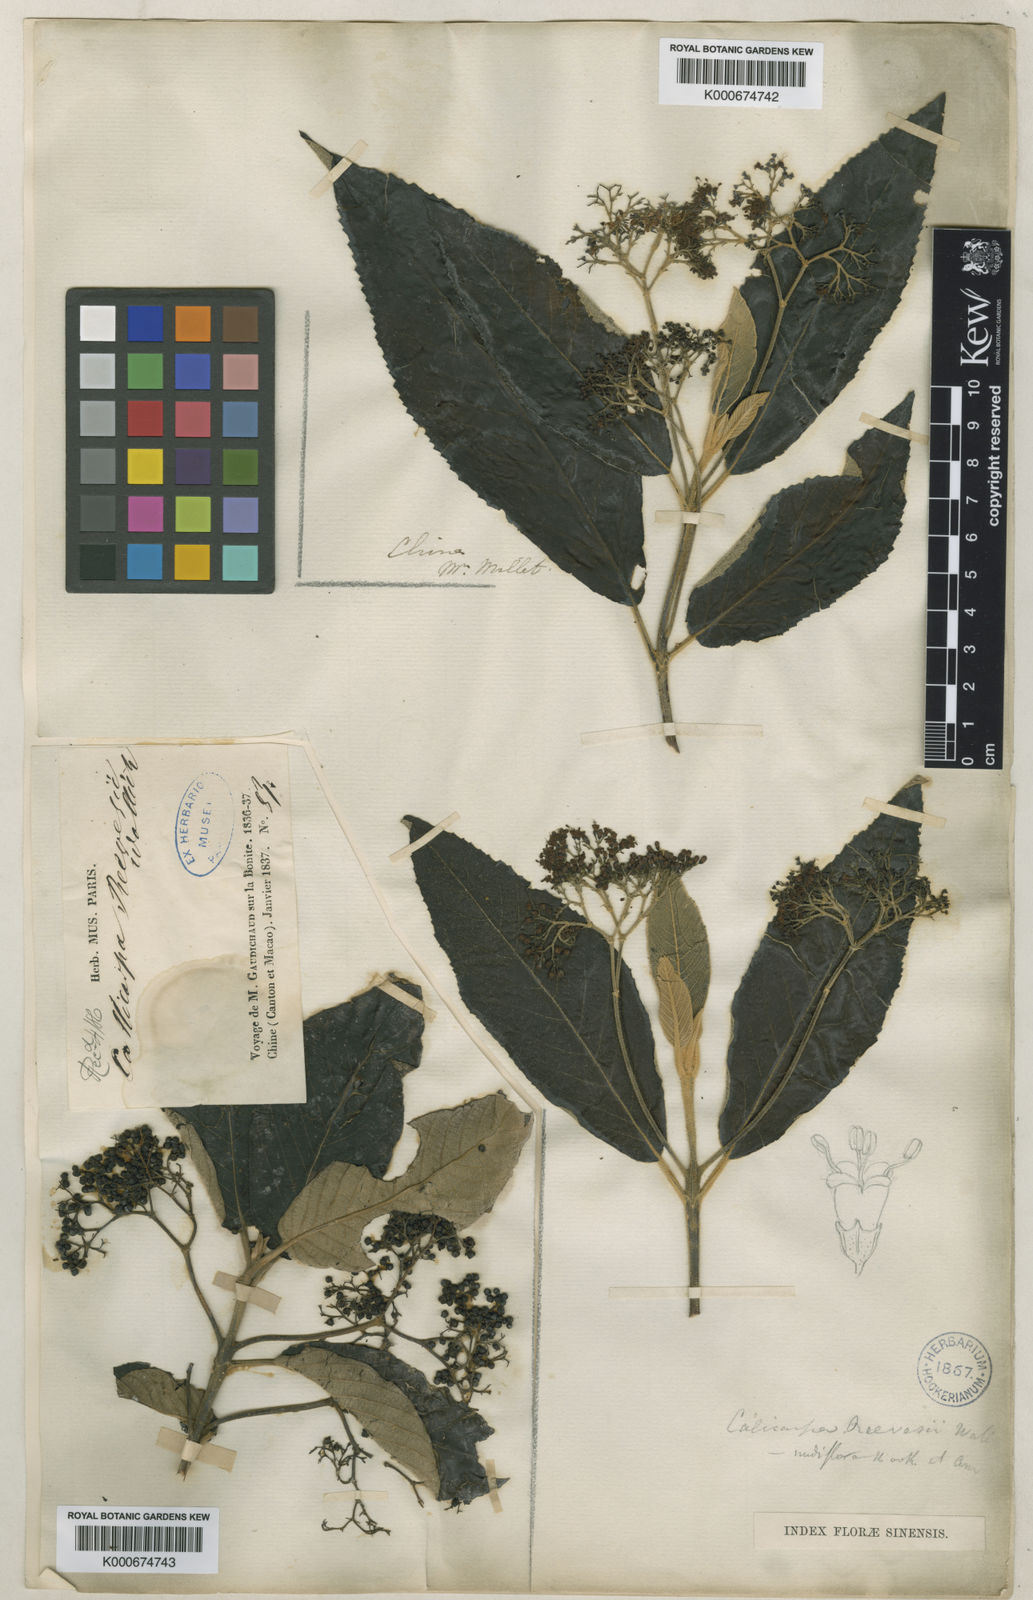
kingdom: Plantae
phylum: Tracheophyta
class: Magnoliopsida
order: Lamiales
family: Lamiaceae
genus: Callicarpa
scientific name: Callicarpa nudiflora
